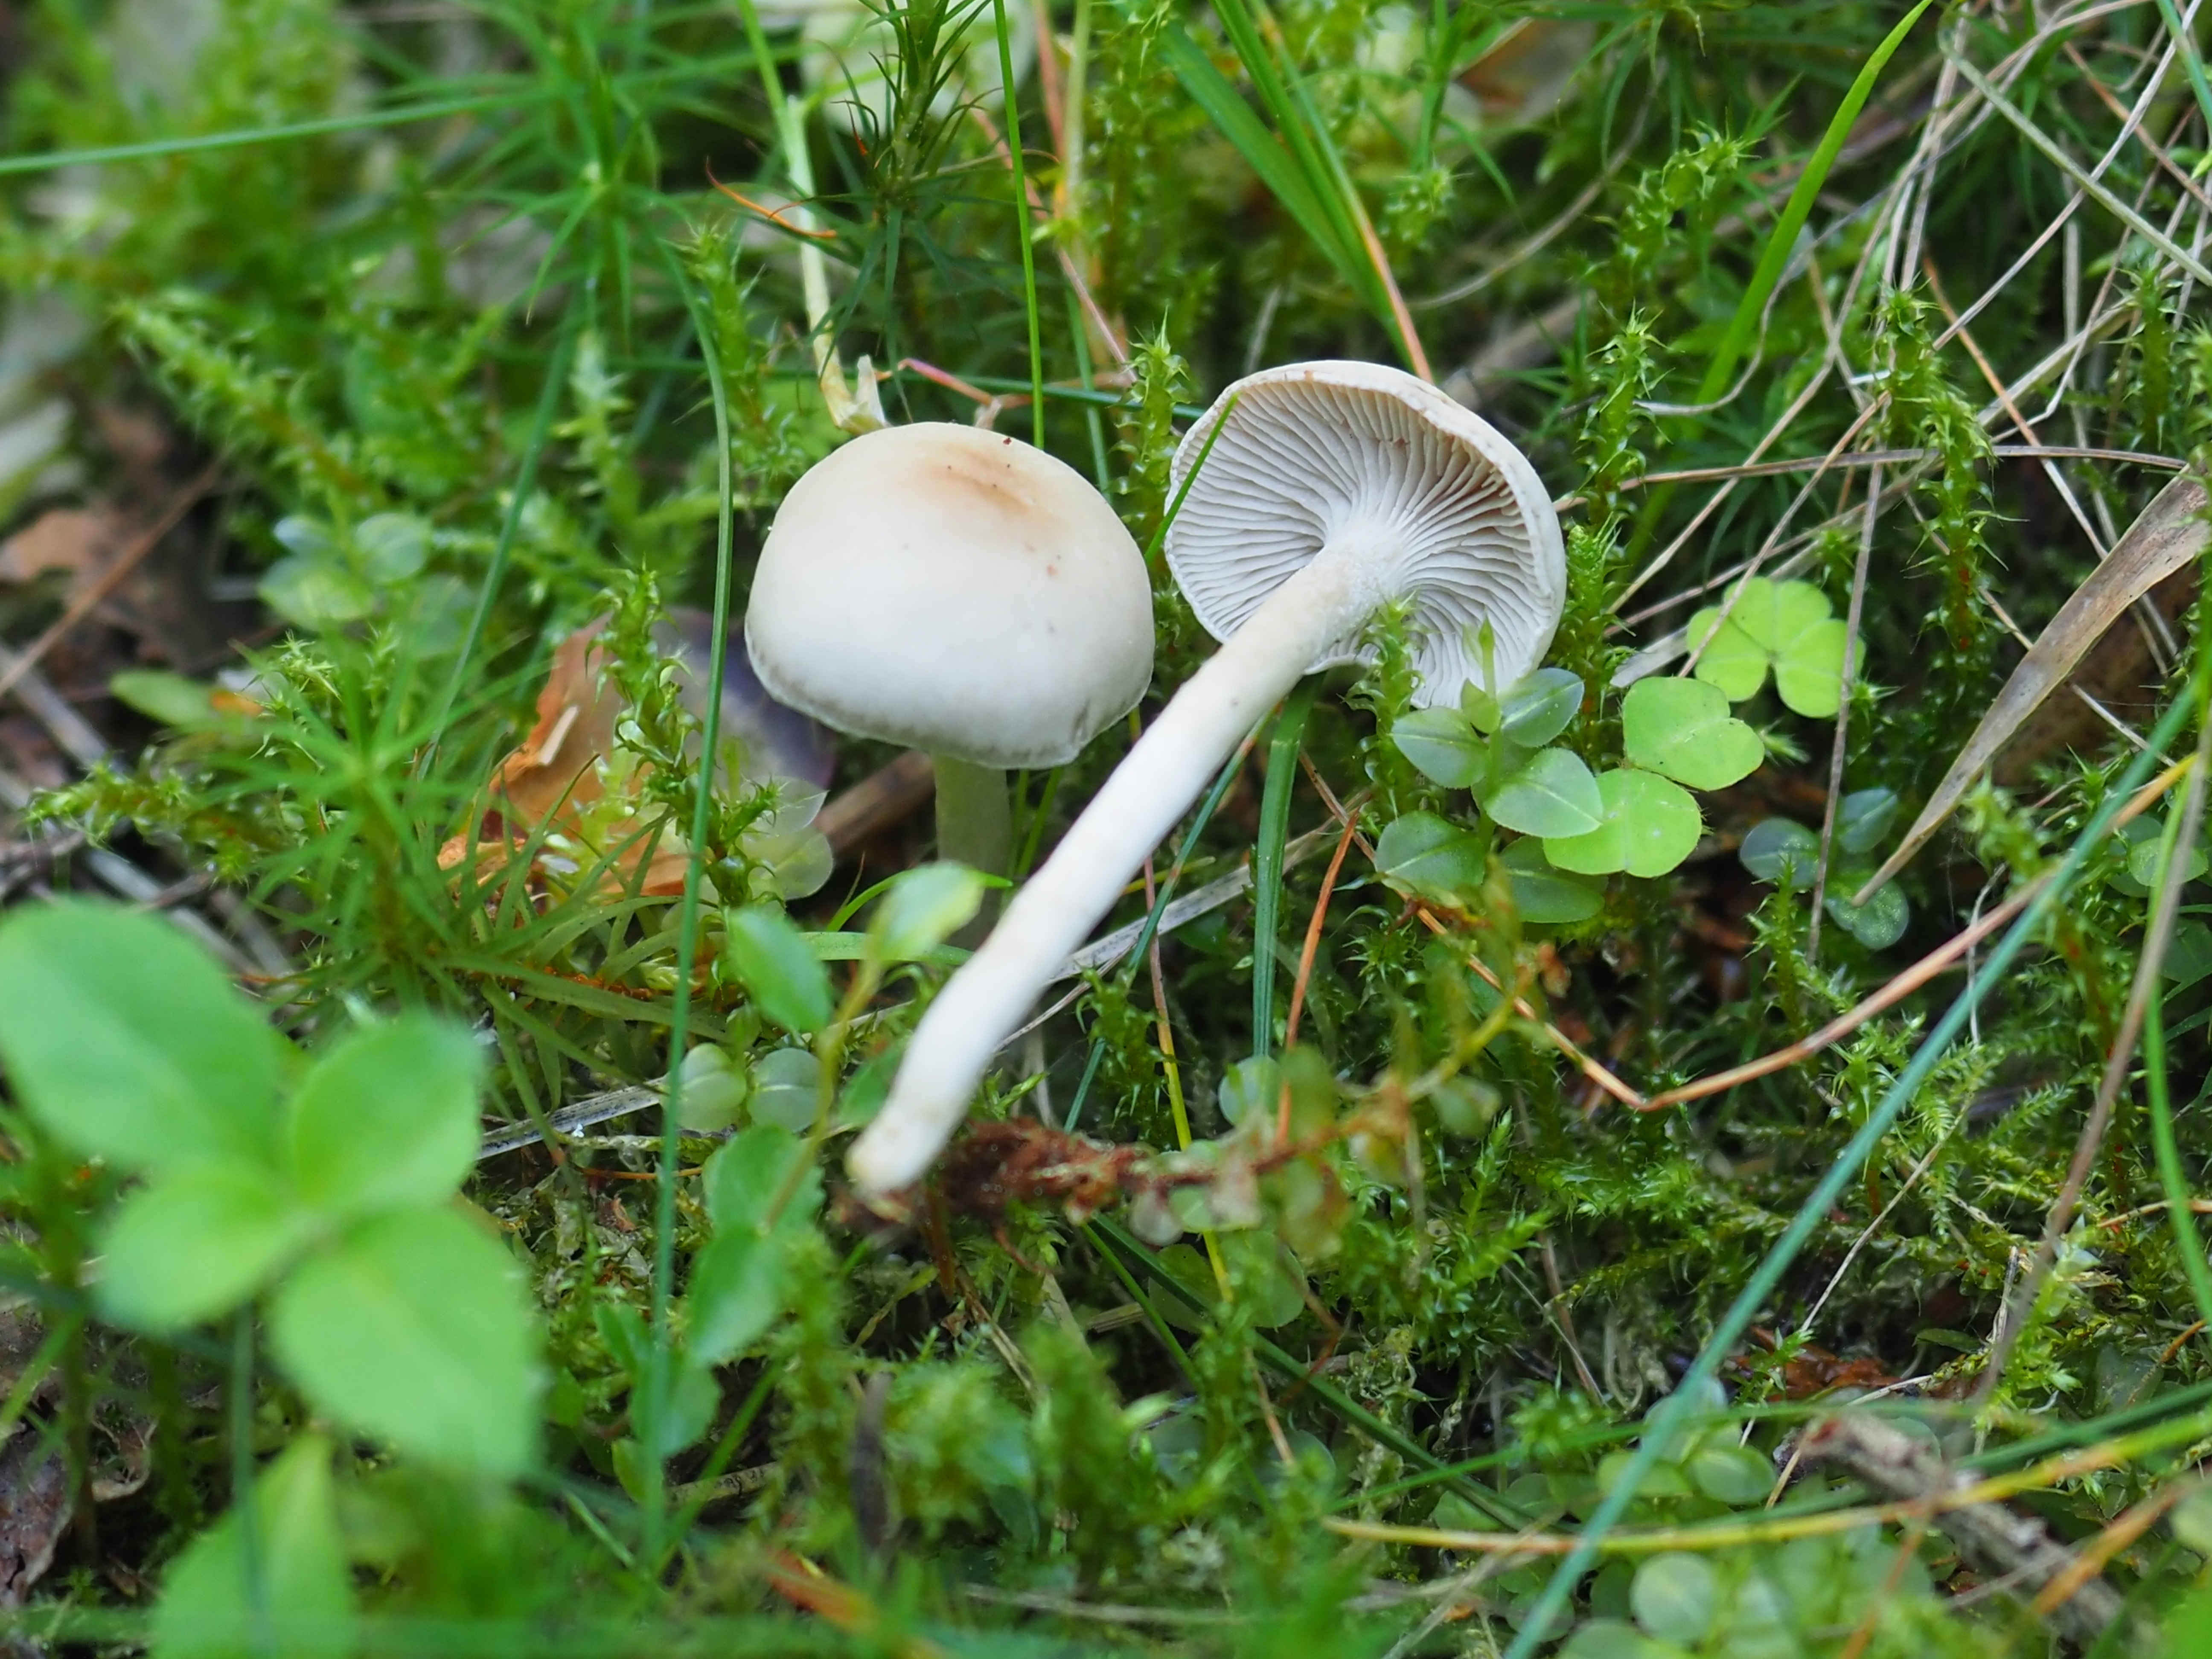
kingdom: Fungi
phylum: Basidiomycota
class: Agaricomycetes
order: Agaricales
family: Tricholomataceae
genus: Clitocybe
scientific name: Clitocybe fragrans
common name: Fragrant funnel
